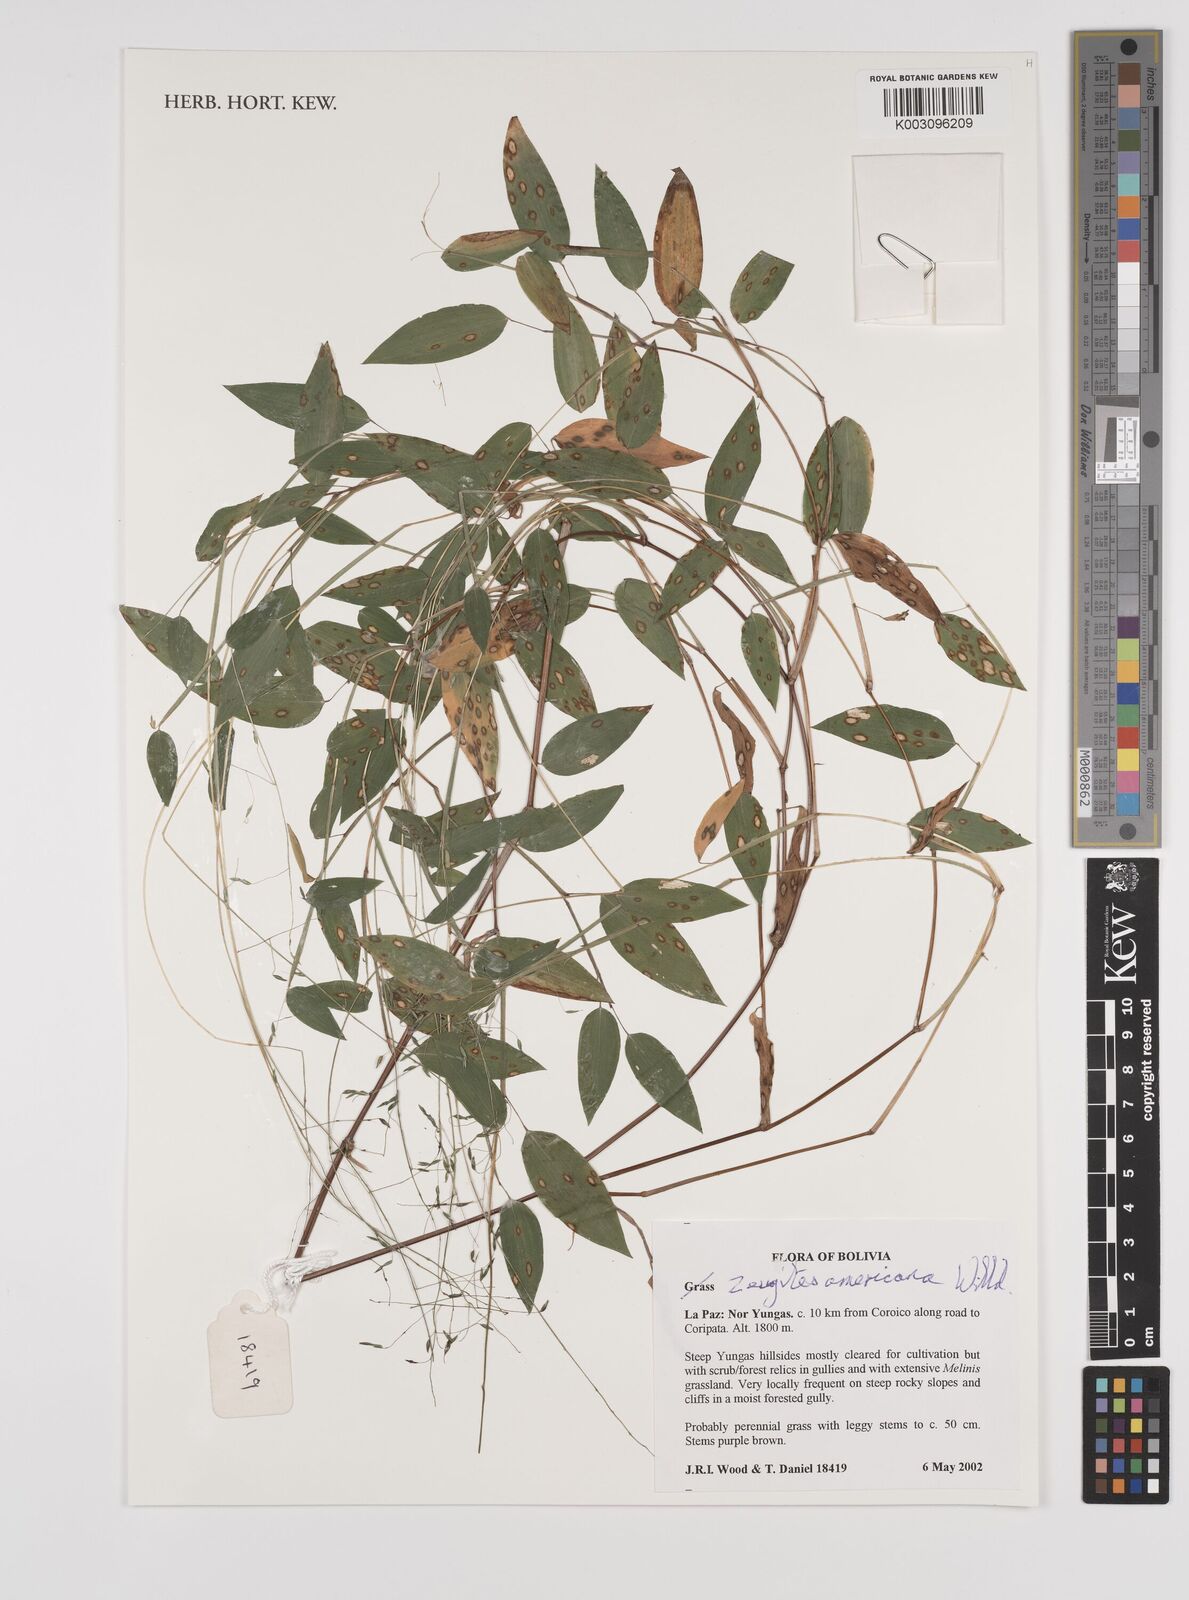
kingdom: Plantae
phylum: Tracheophyta
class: Liliopsida
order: Poales
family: Poaceae
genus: Zeugites
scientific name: Zeugites americanus
